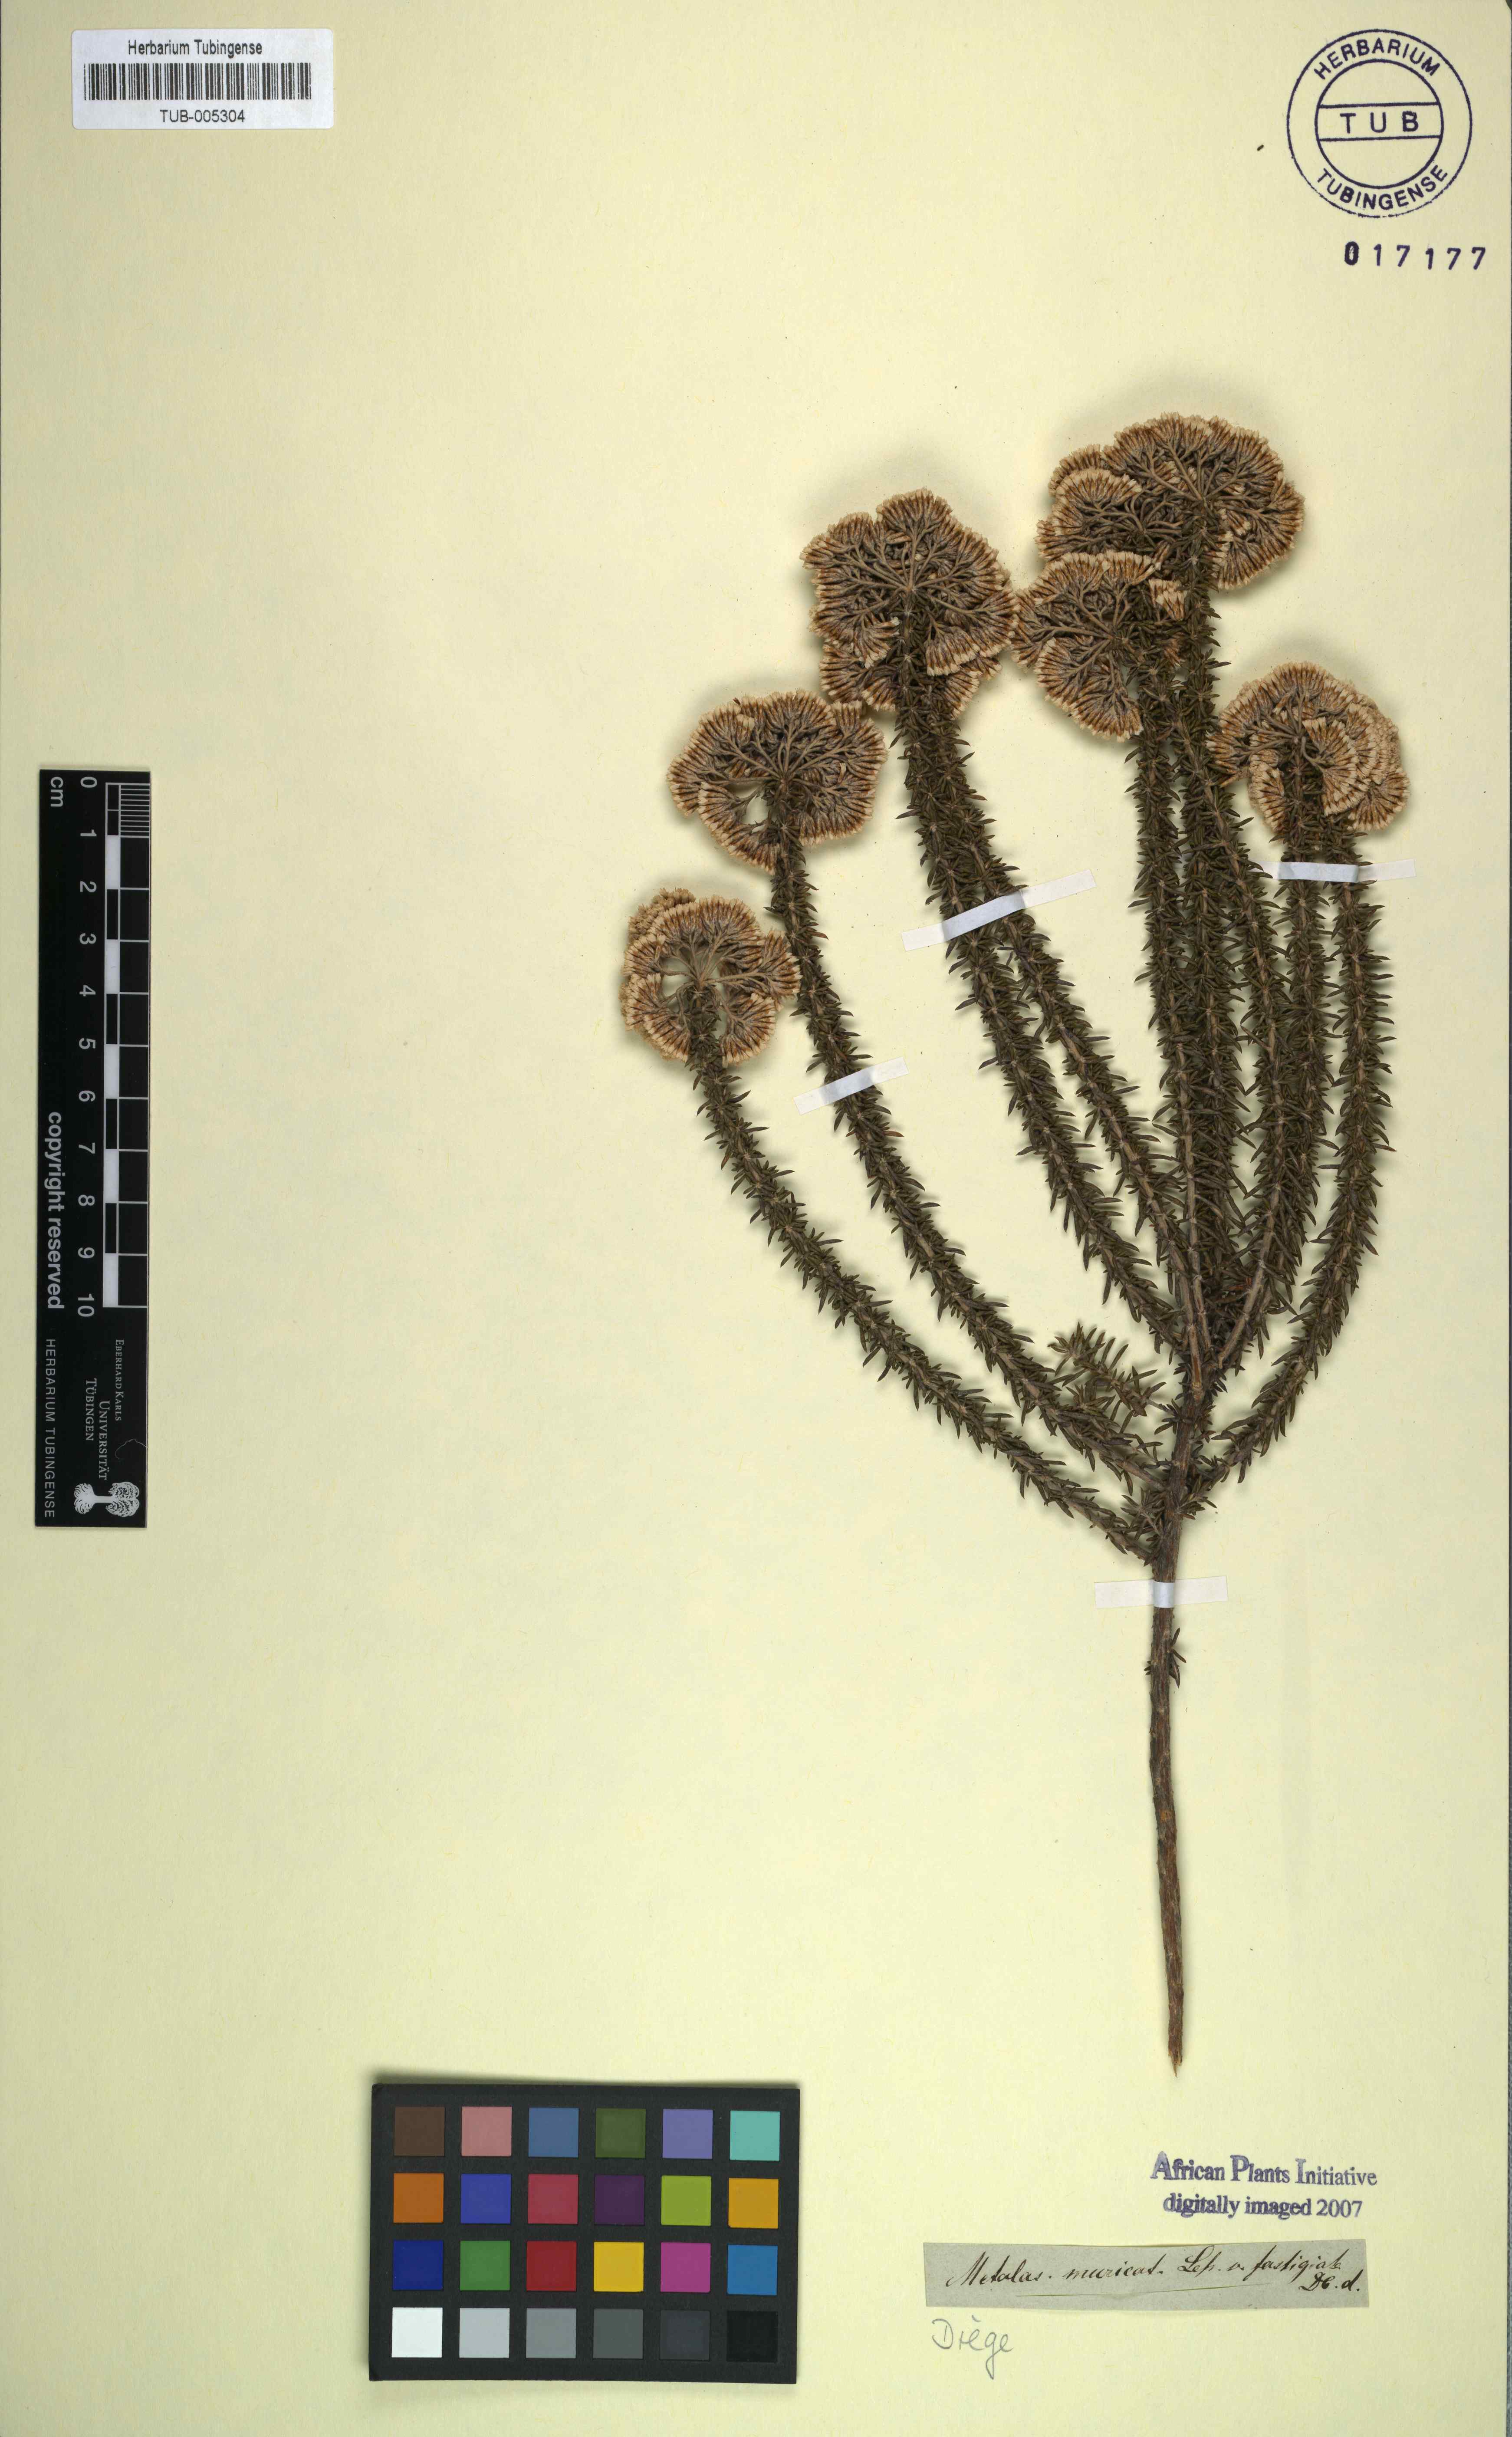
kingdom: Plantae
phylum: Tracheophyta
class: Magnoliopsida
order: Asterales
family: Asteraceae
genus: Metalasia
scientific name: Metalasia muricata
